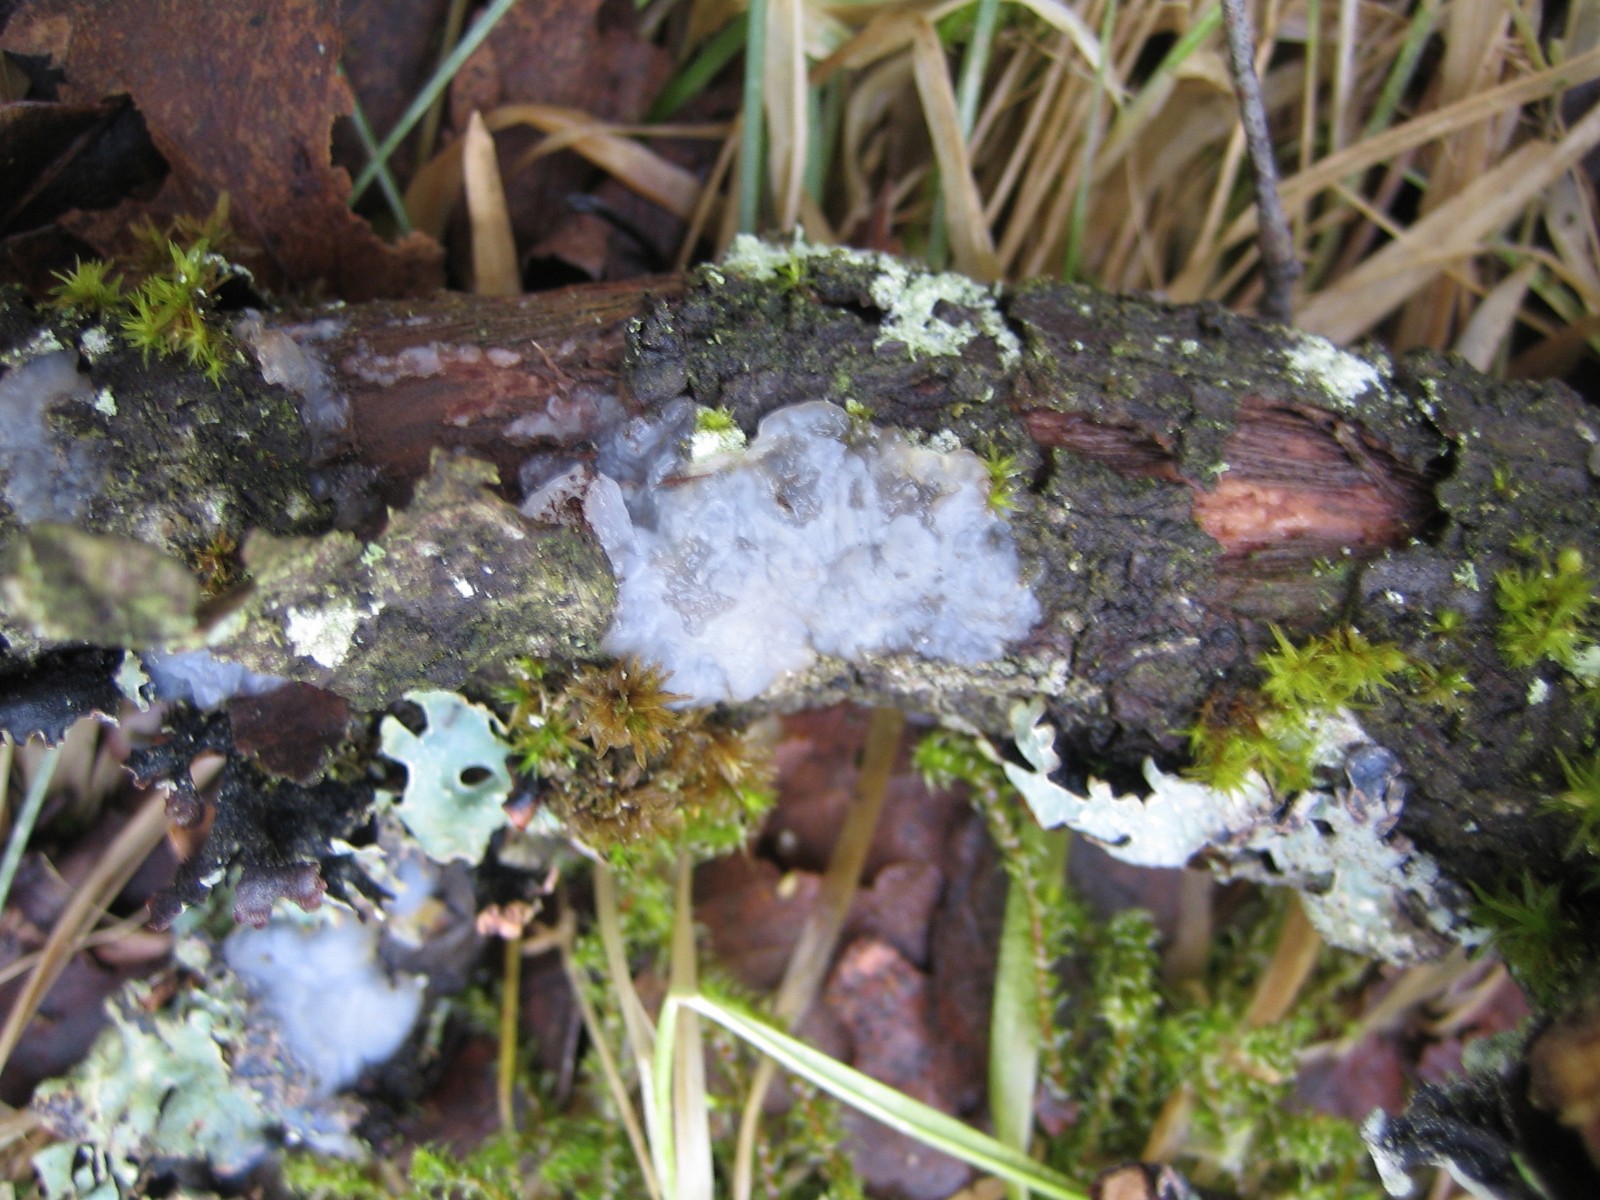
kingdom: Fungi
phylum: Basidiomycota
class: Agaricomycetes
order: Auriculariales
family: Hyaloriaceae
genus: Myxarium
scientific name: Myxarium
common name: bævretop
